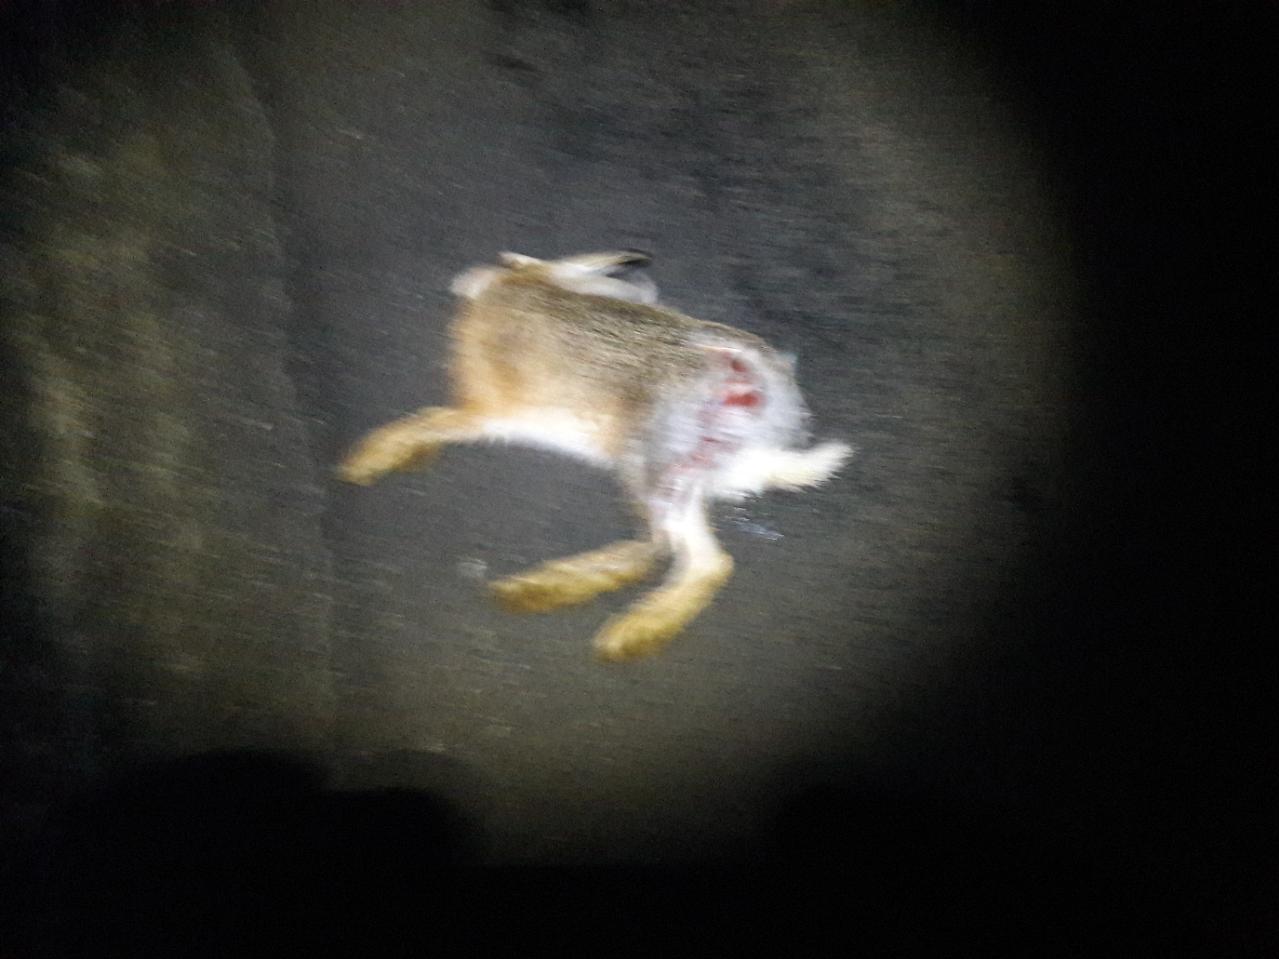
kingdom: Animalia
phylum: Chordata
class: Mammalia
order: Lagomorpha
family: Leporidae
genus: Lepus
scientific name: Lepus europaeus
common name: European hare
